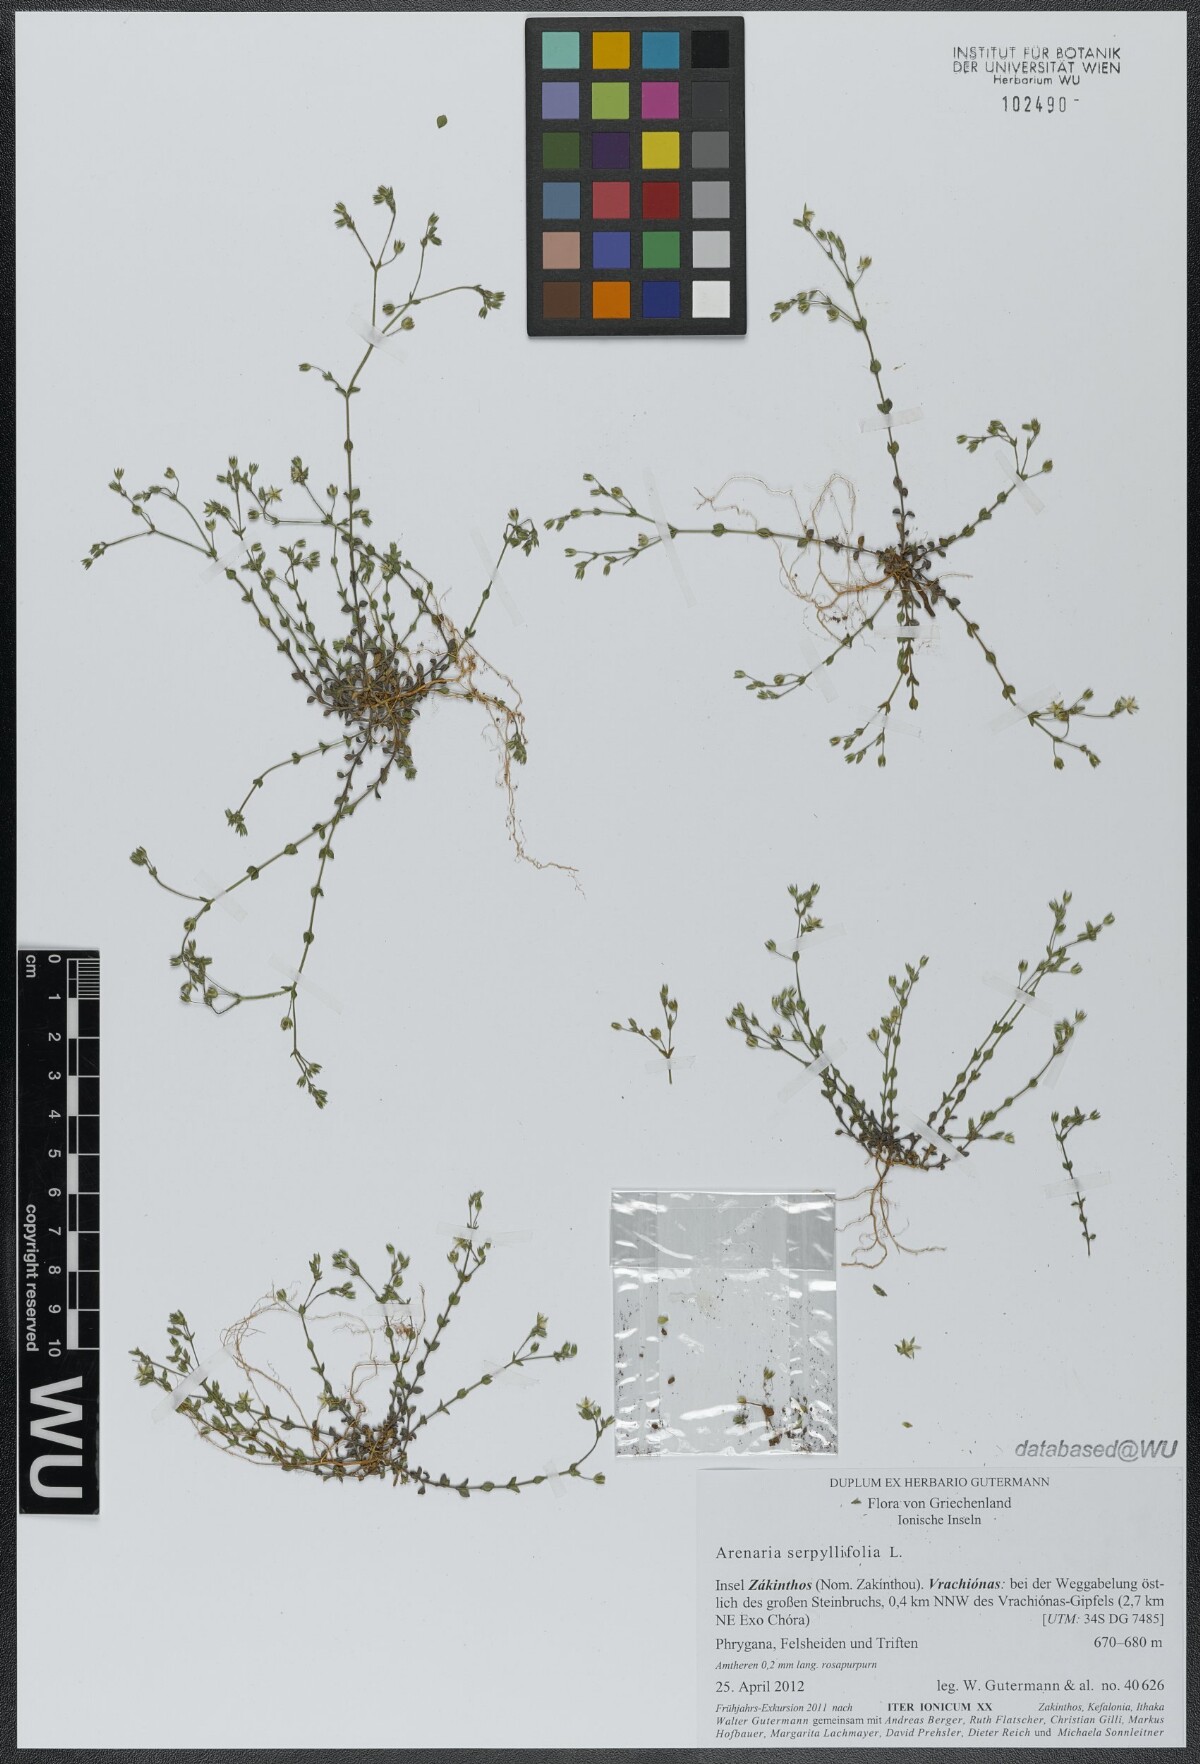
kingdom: Plantae
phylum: Tracheophyta
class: Magnoliopsida
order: Caryophyllales
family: Caryophyllaceae
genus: Arenaria
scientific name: Arenaria serpyllifolia
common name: Thyme-leaved sandwort
